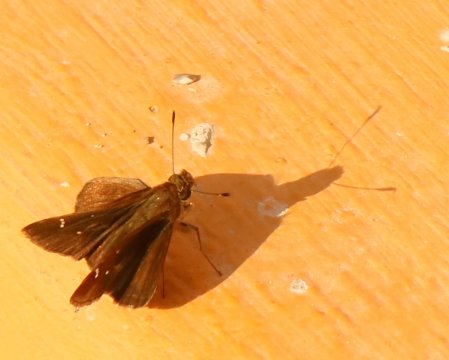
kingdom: Animalia
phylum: Arthropoda
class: Insecta
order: Lepidoptera
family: Hesperiidae
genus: Lerema
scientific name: Lerema
